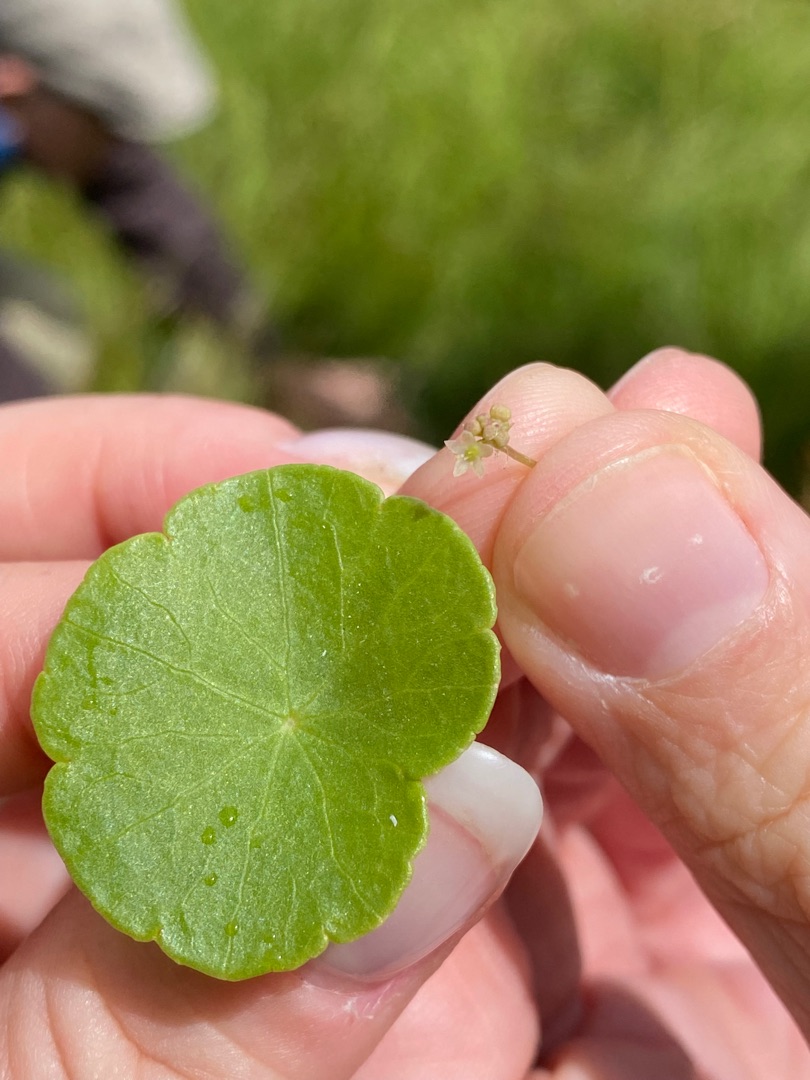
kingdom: Plantae
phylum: Tracheophyta
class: Magnoliopsida
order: Apiales
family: Araliaceae
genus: Hydrocotyle
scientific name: Hydrocotyle vulgaris
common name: Vandnavle
